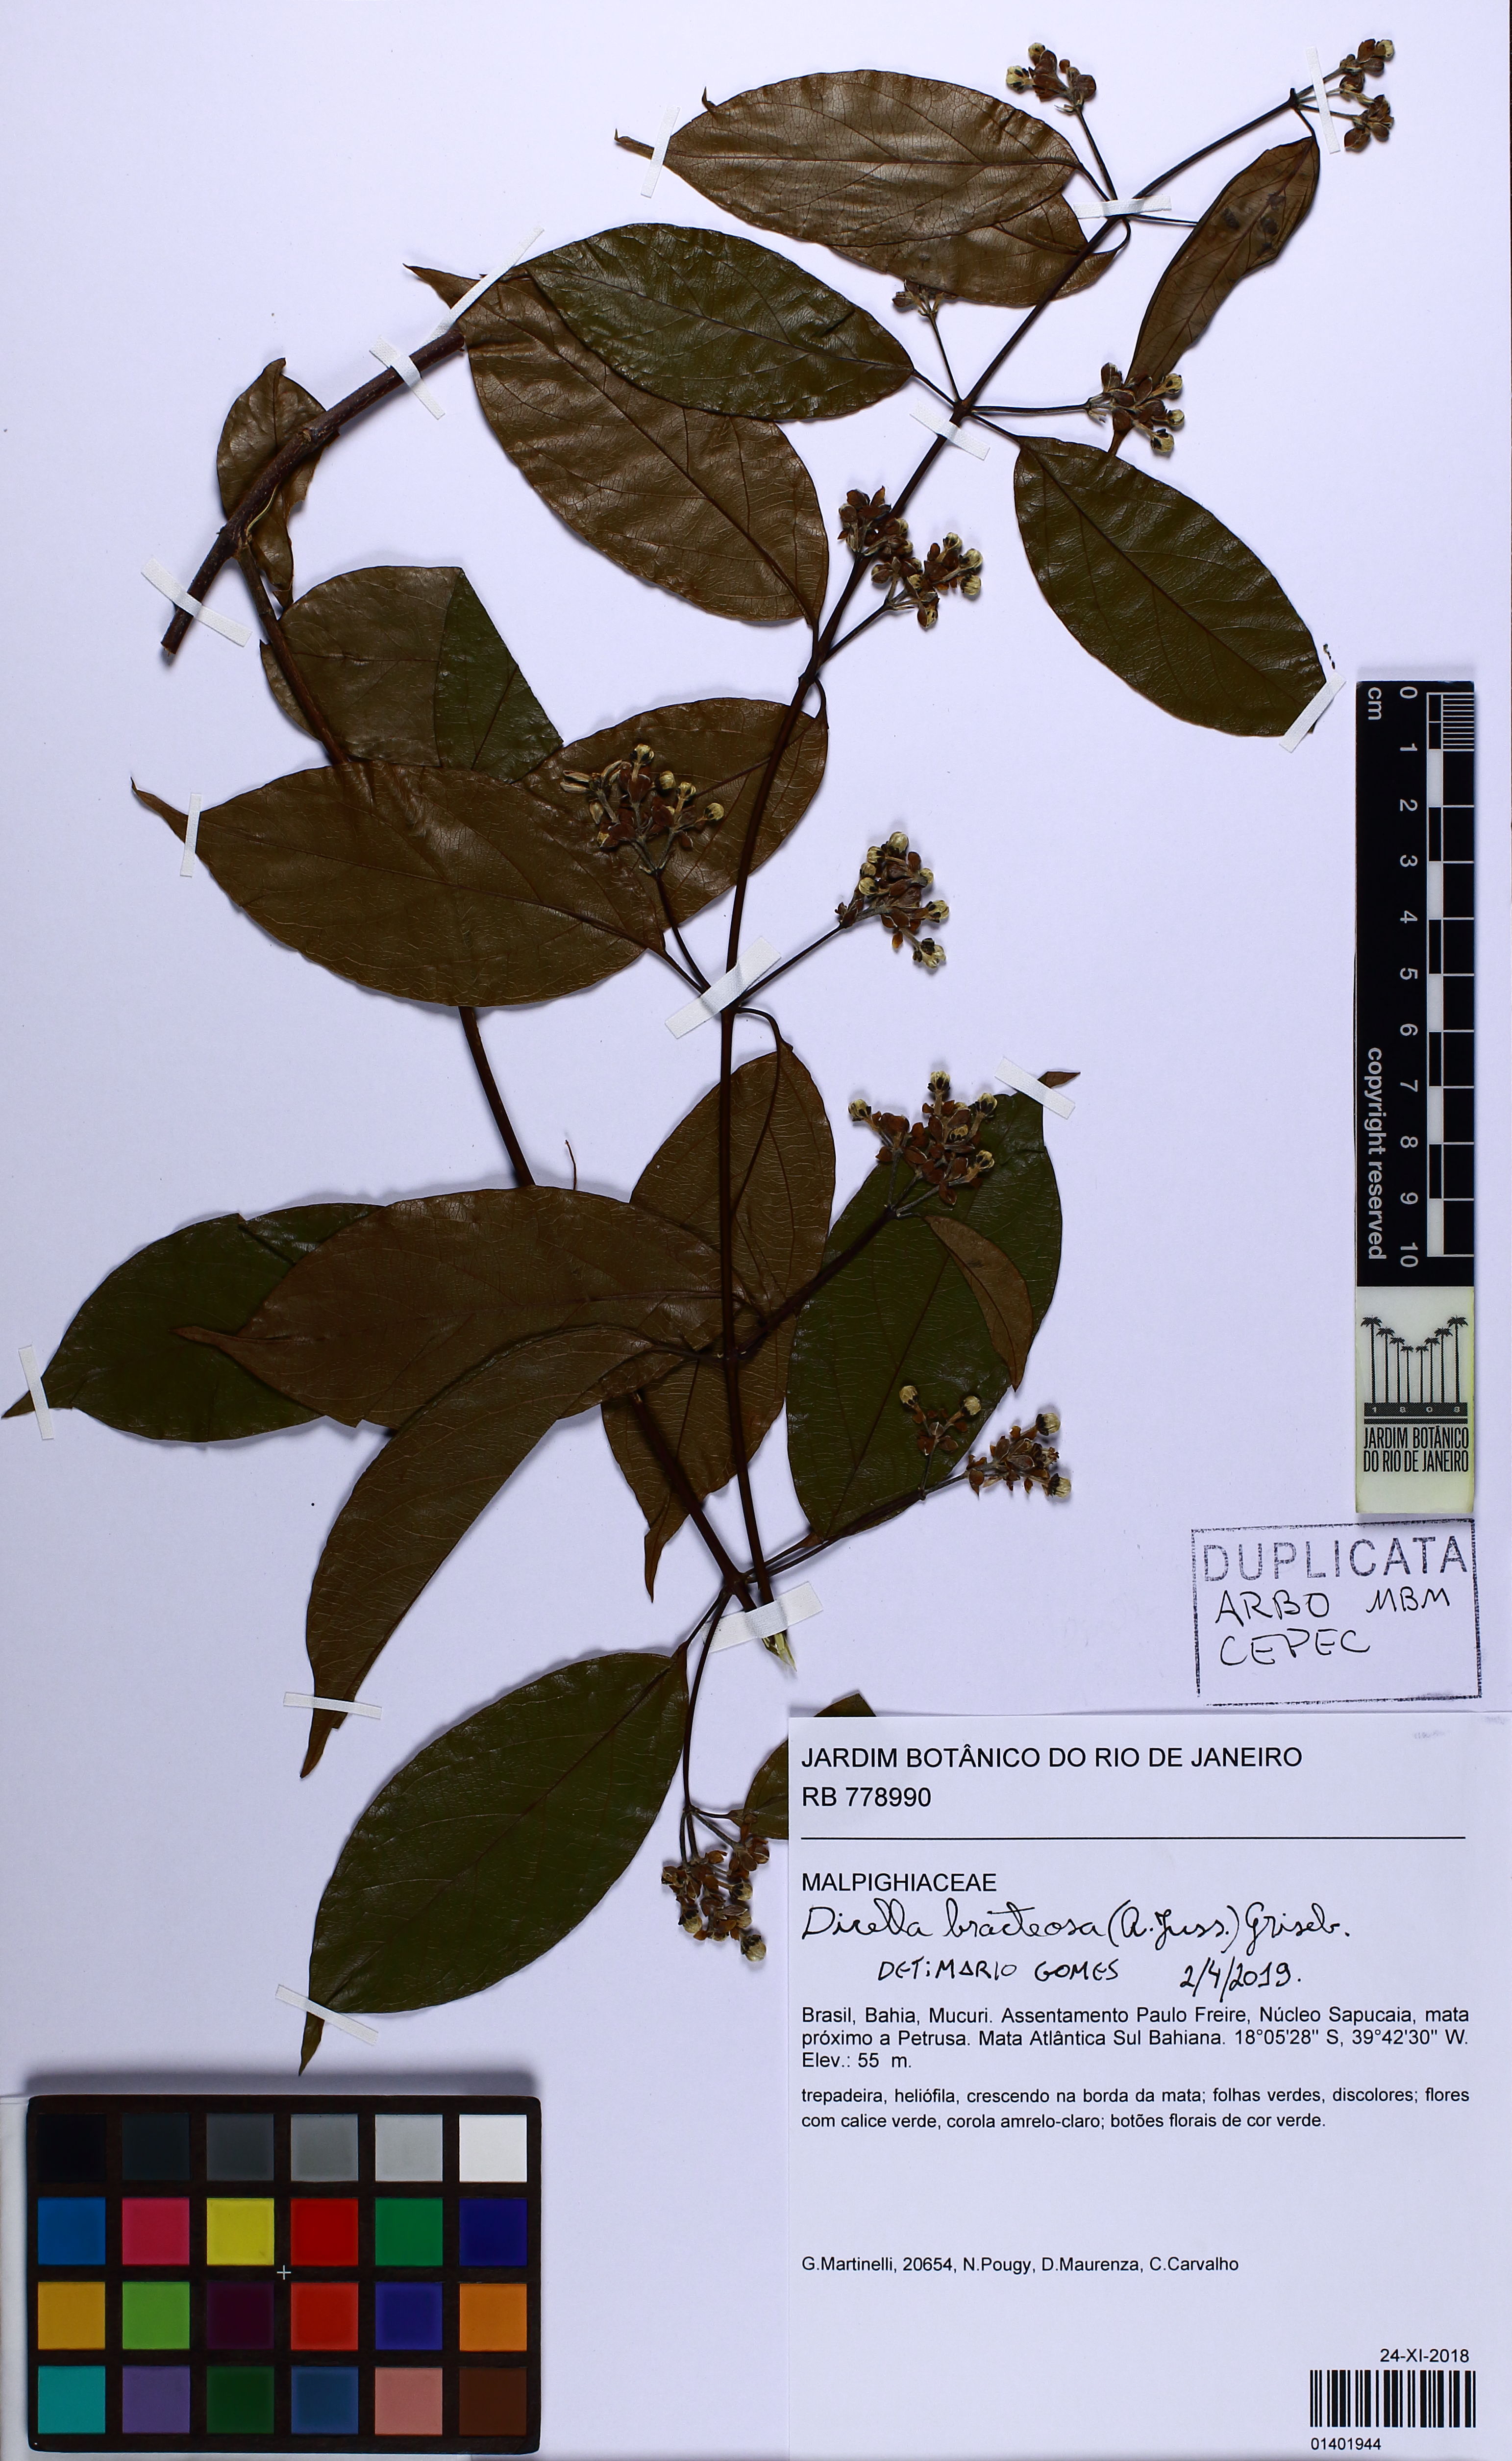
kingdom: Plantae
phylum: Tracheophyta
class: Magnoliopsida
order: Malpighiales
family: Malpighiaceae
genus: Dicella
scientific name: Dicella bracteosa
